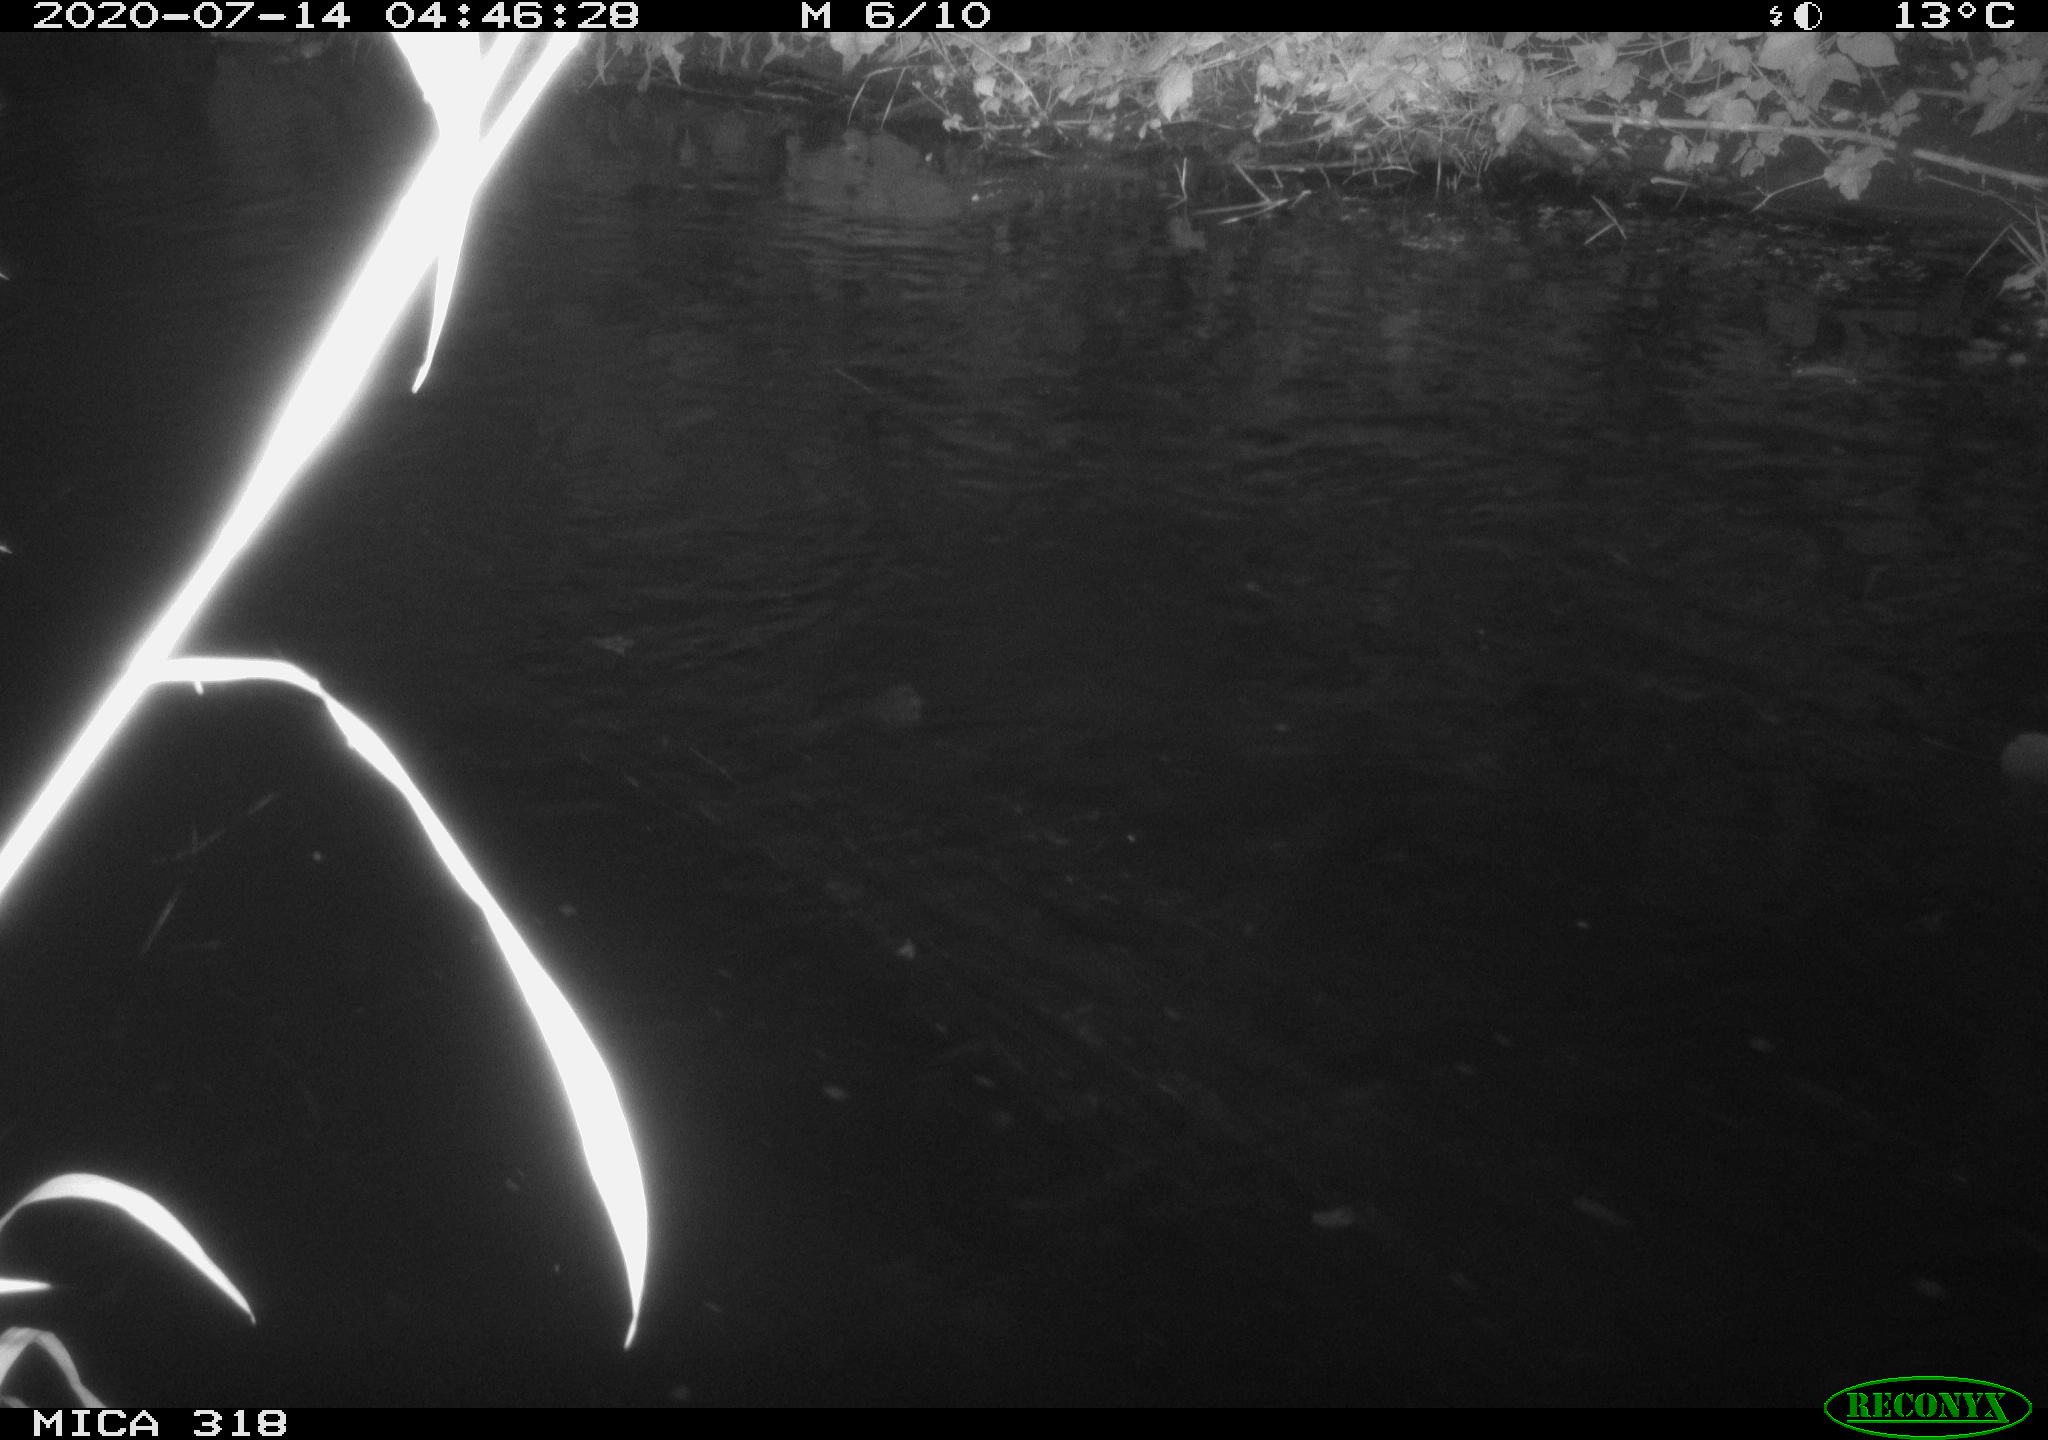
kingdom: Animalia
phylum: Chordata
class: Aves
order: Anseriformes
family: Anatidae
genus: Mareca
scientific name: Mareca strepera
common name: Gadwall
